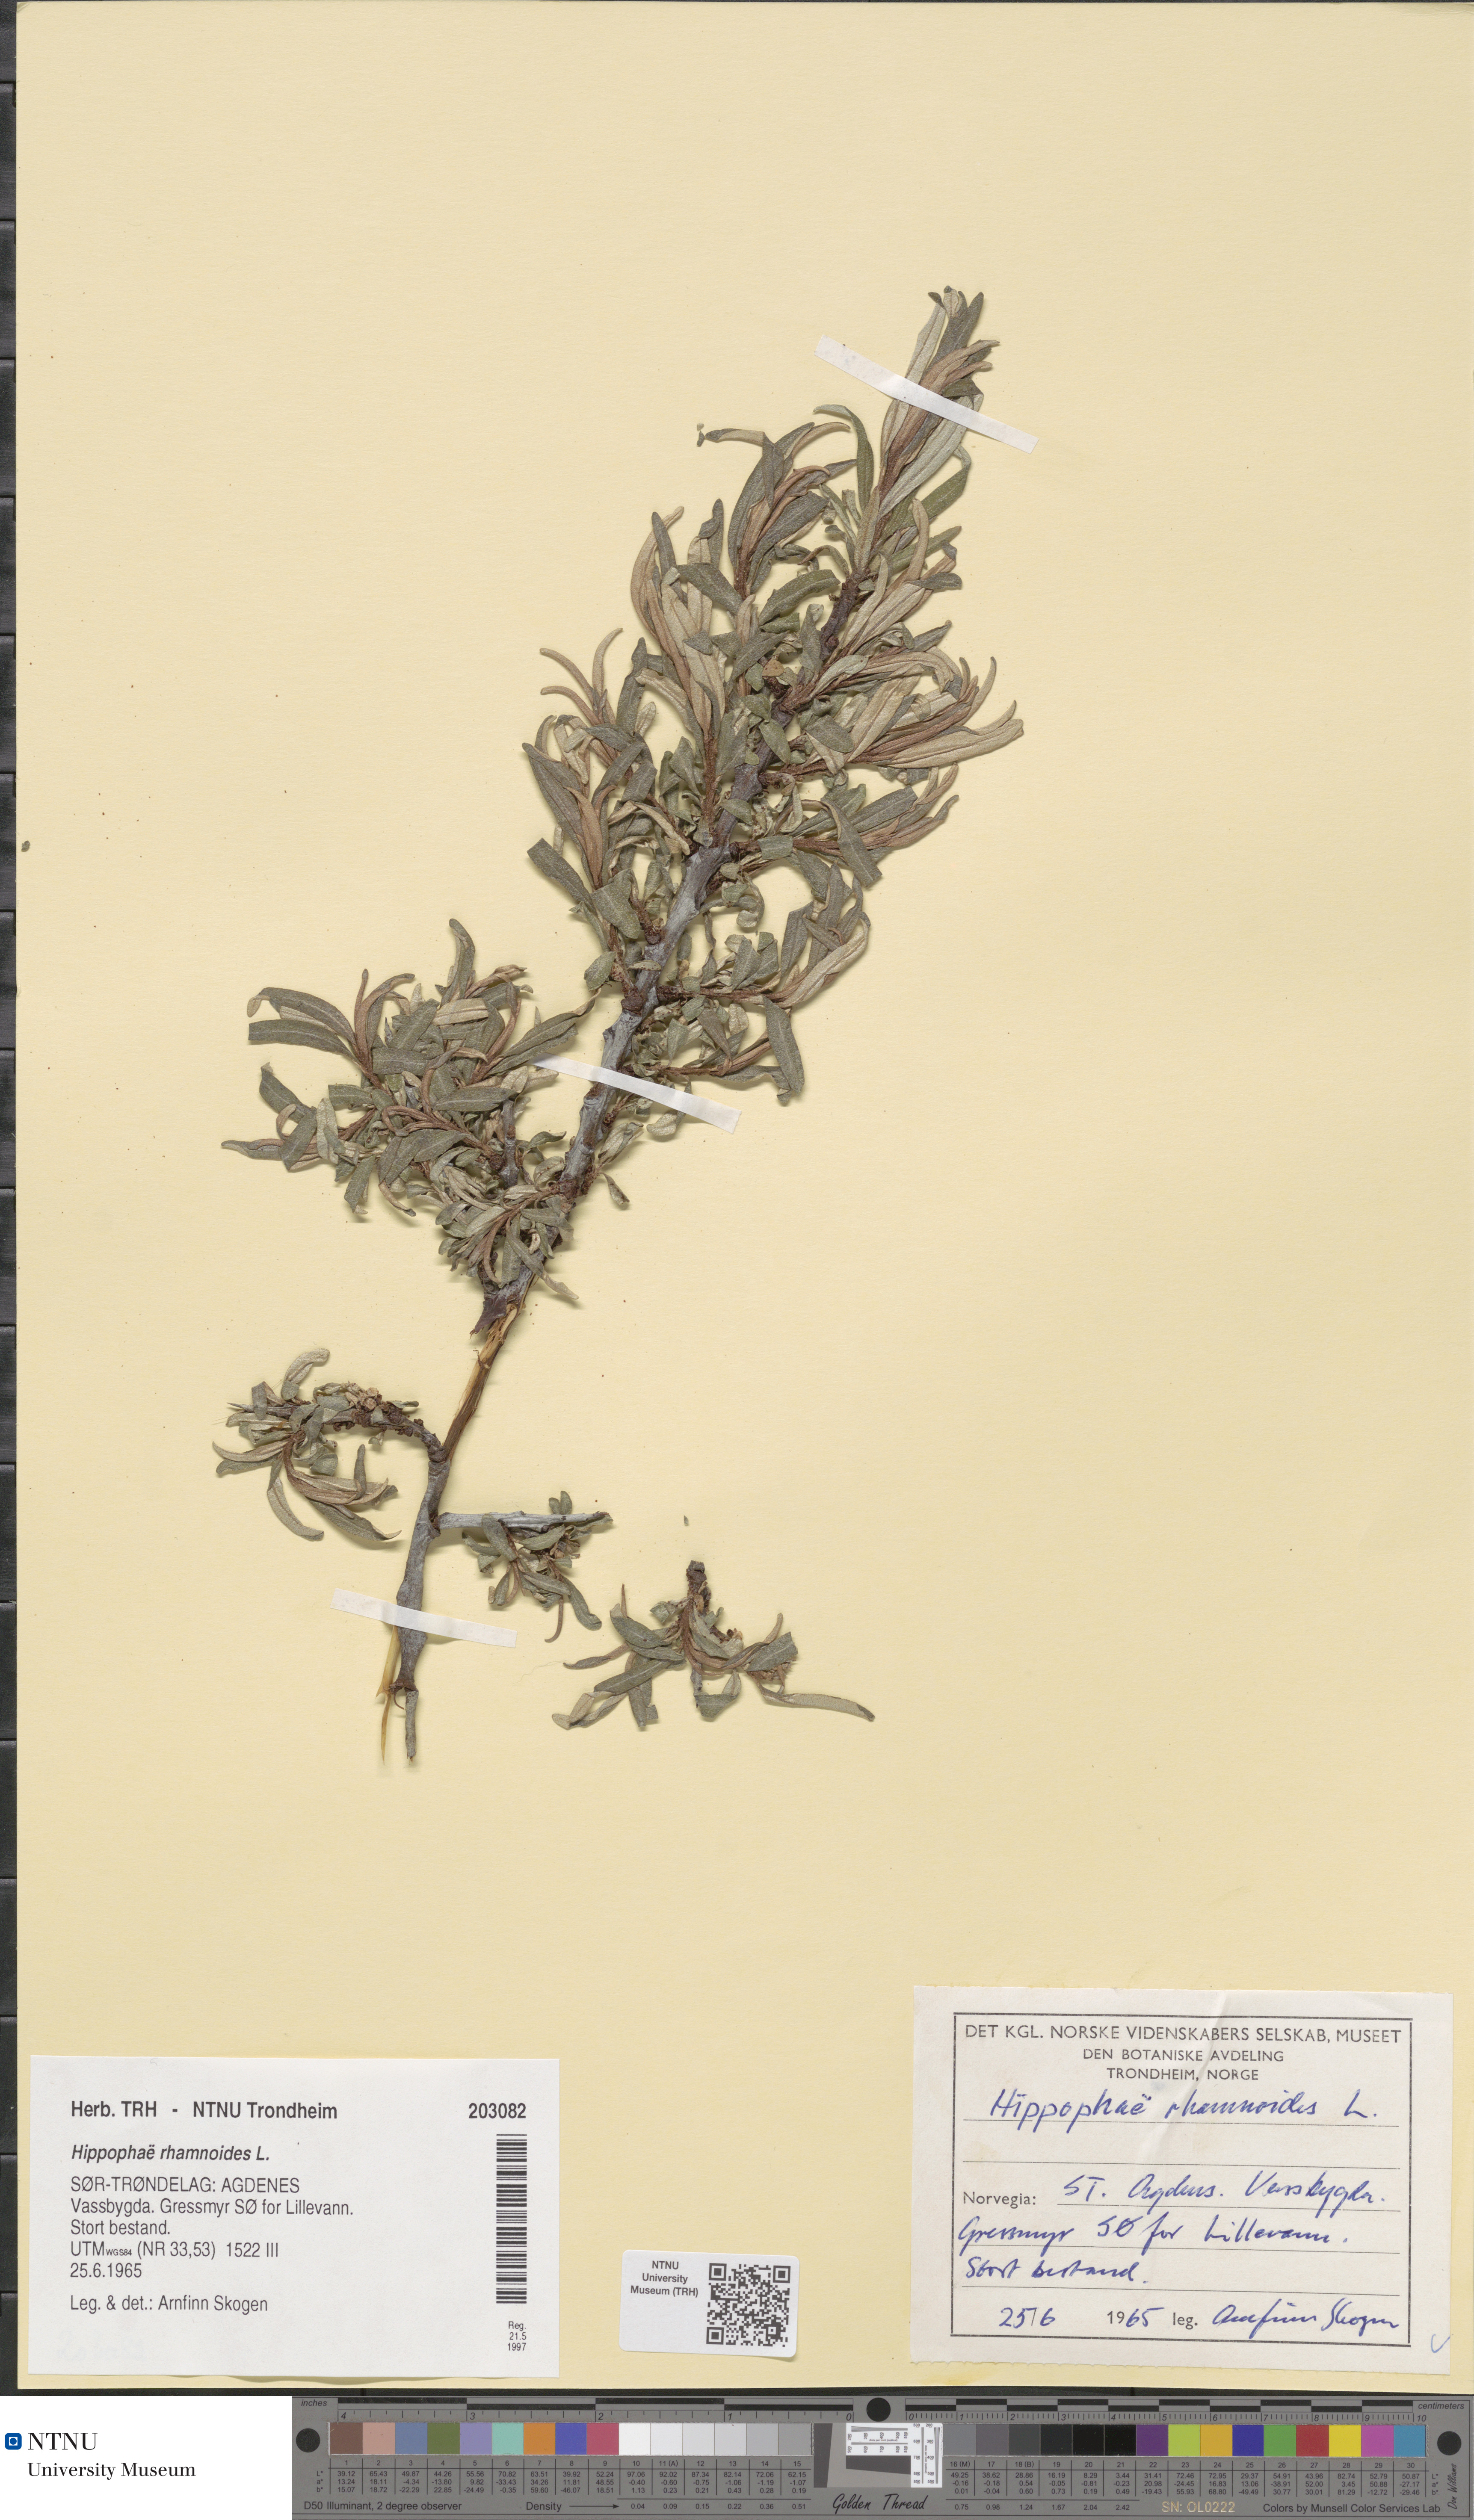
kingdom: Plantae
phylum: Tracheophyta
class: Magnoliopsida
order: Rosales
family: Elaeagnaceae
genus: Hippophae
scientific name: Hippophae rhamnoides
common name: Sea-buckthorn
